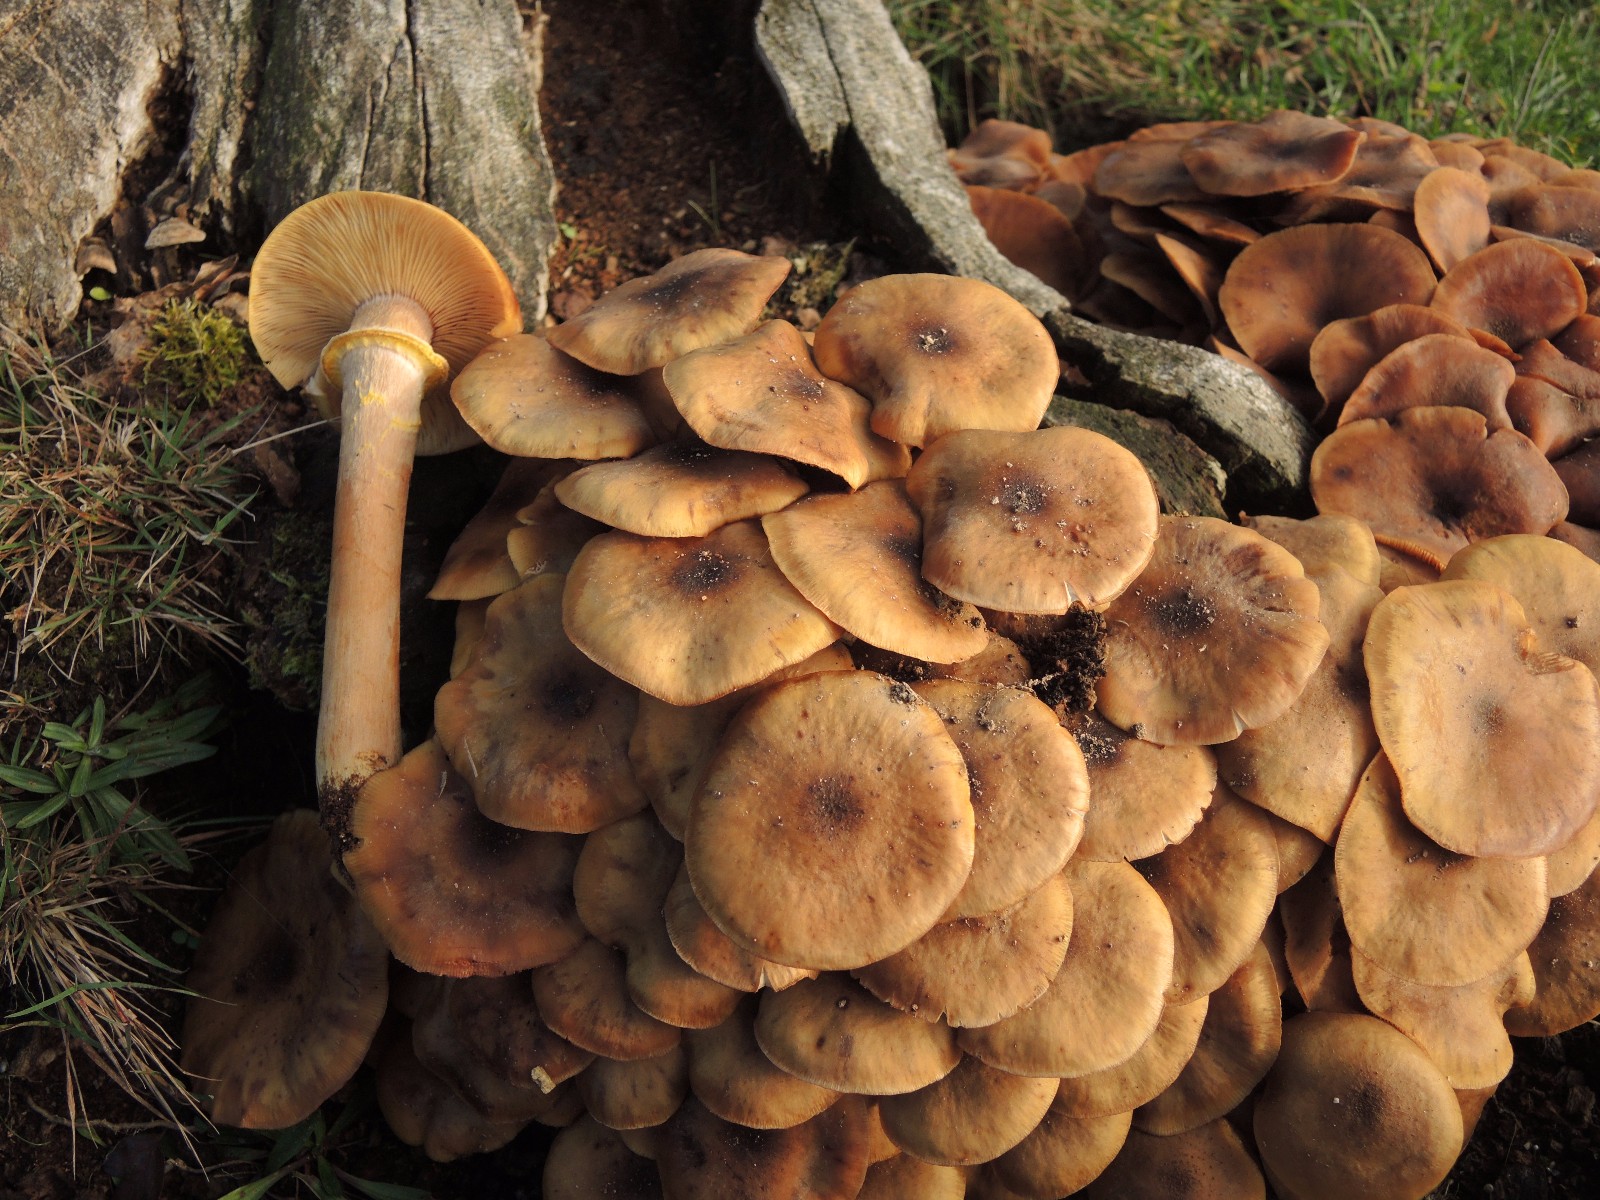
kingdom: Fungi
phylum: Basidiomycota
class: Agaricomycetes
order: Agaricales
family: Physalacriaceae
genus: Armillaria
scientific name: Armillaria mellea
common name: ægte honningsvamp
